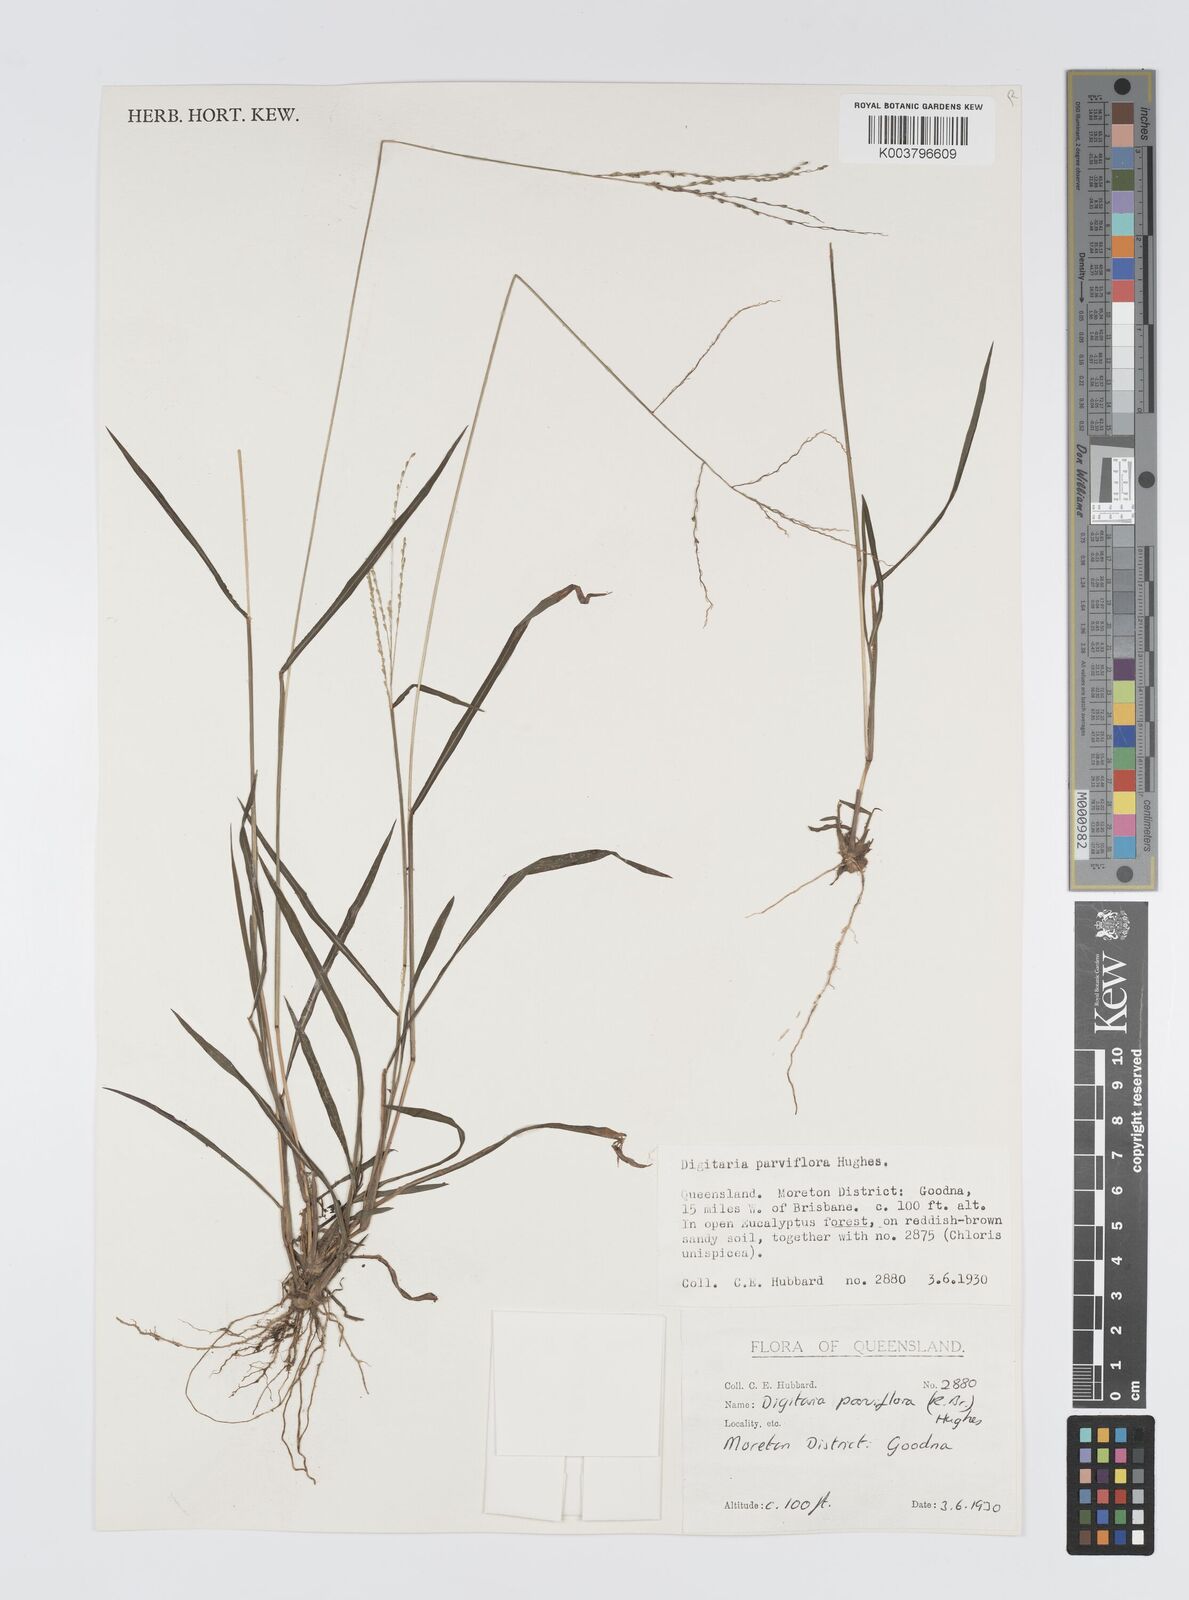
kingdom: Plantae
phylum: Tracheophyta
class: Liliopsida
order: Poales
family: Poaceae
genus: Digitaria
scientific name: Digitaria parviflora
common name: Small-flower finger grass
